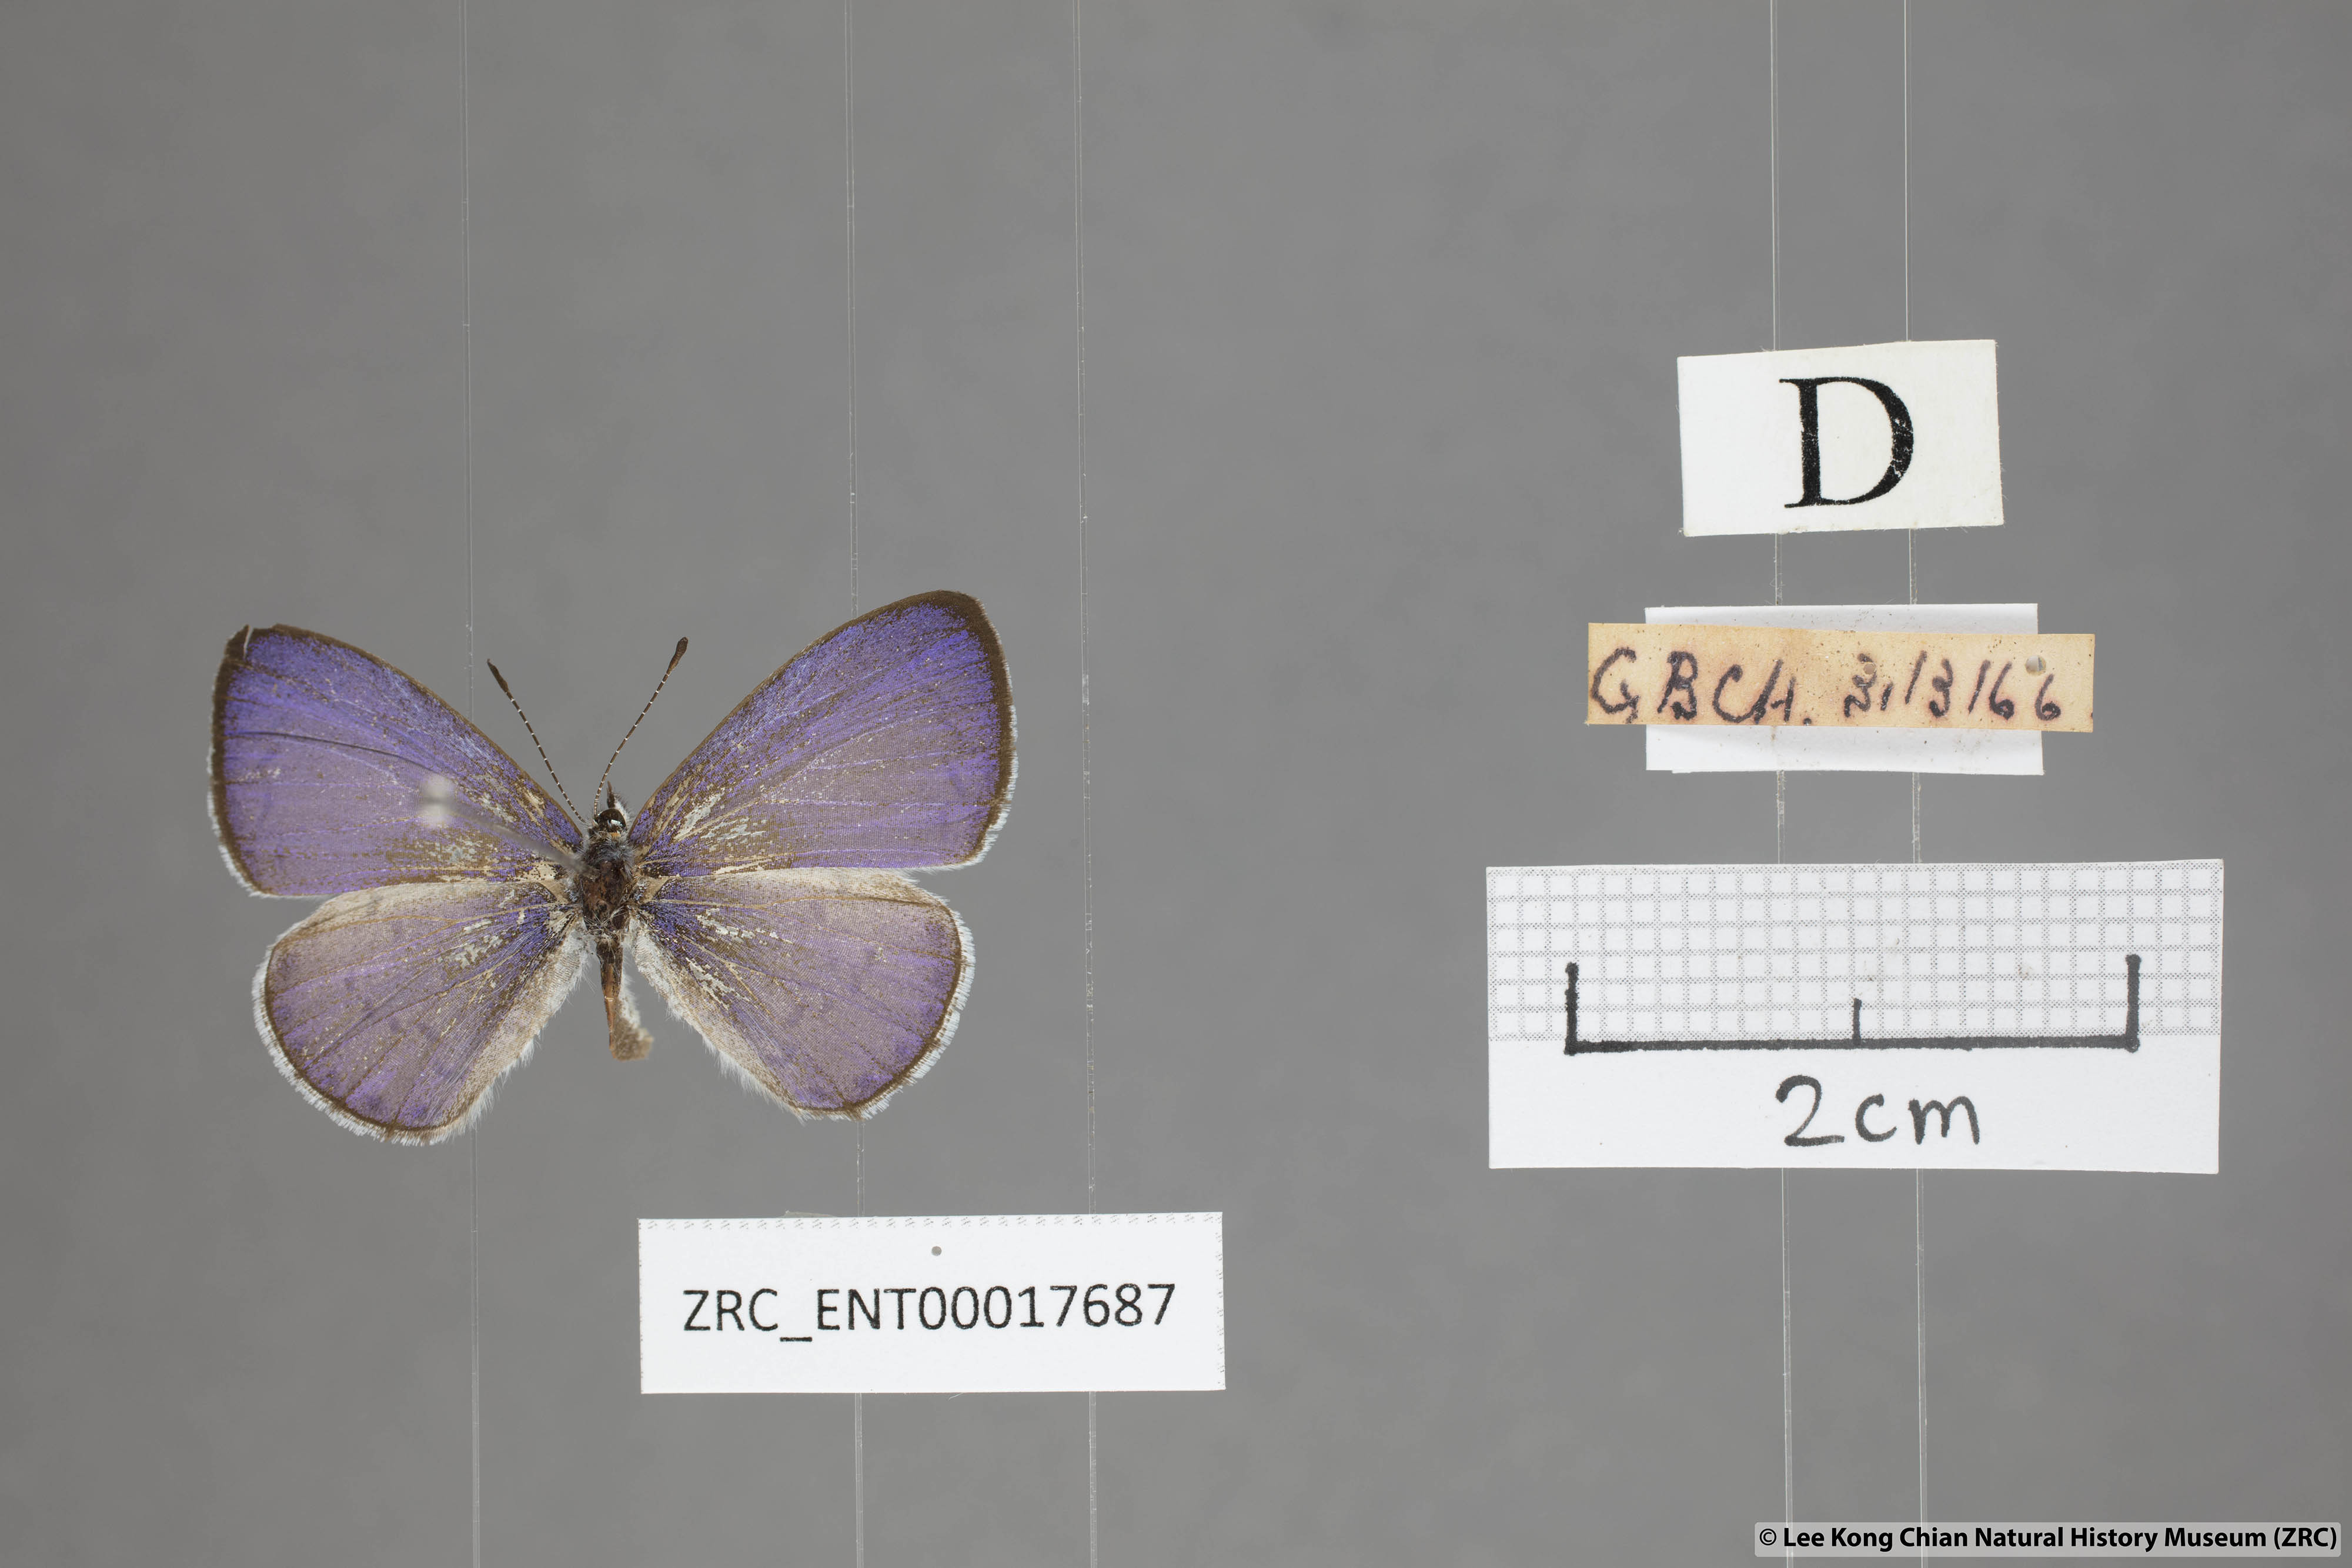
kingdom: Animalia
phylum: Arthropoda
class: Insecta
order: Lepidoptera
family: Lycaenidae
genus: Udara
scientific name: Udara camenae
